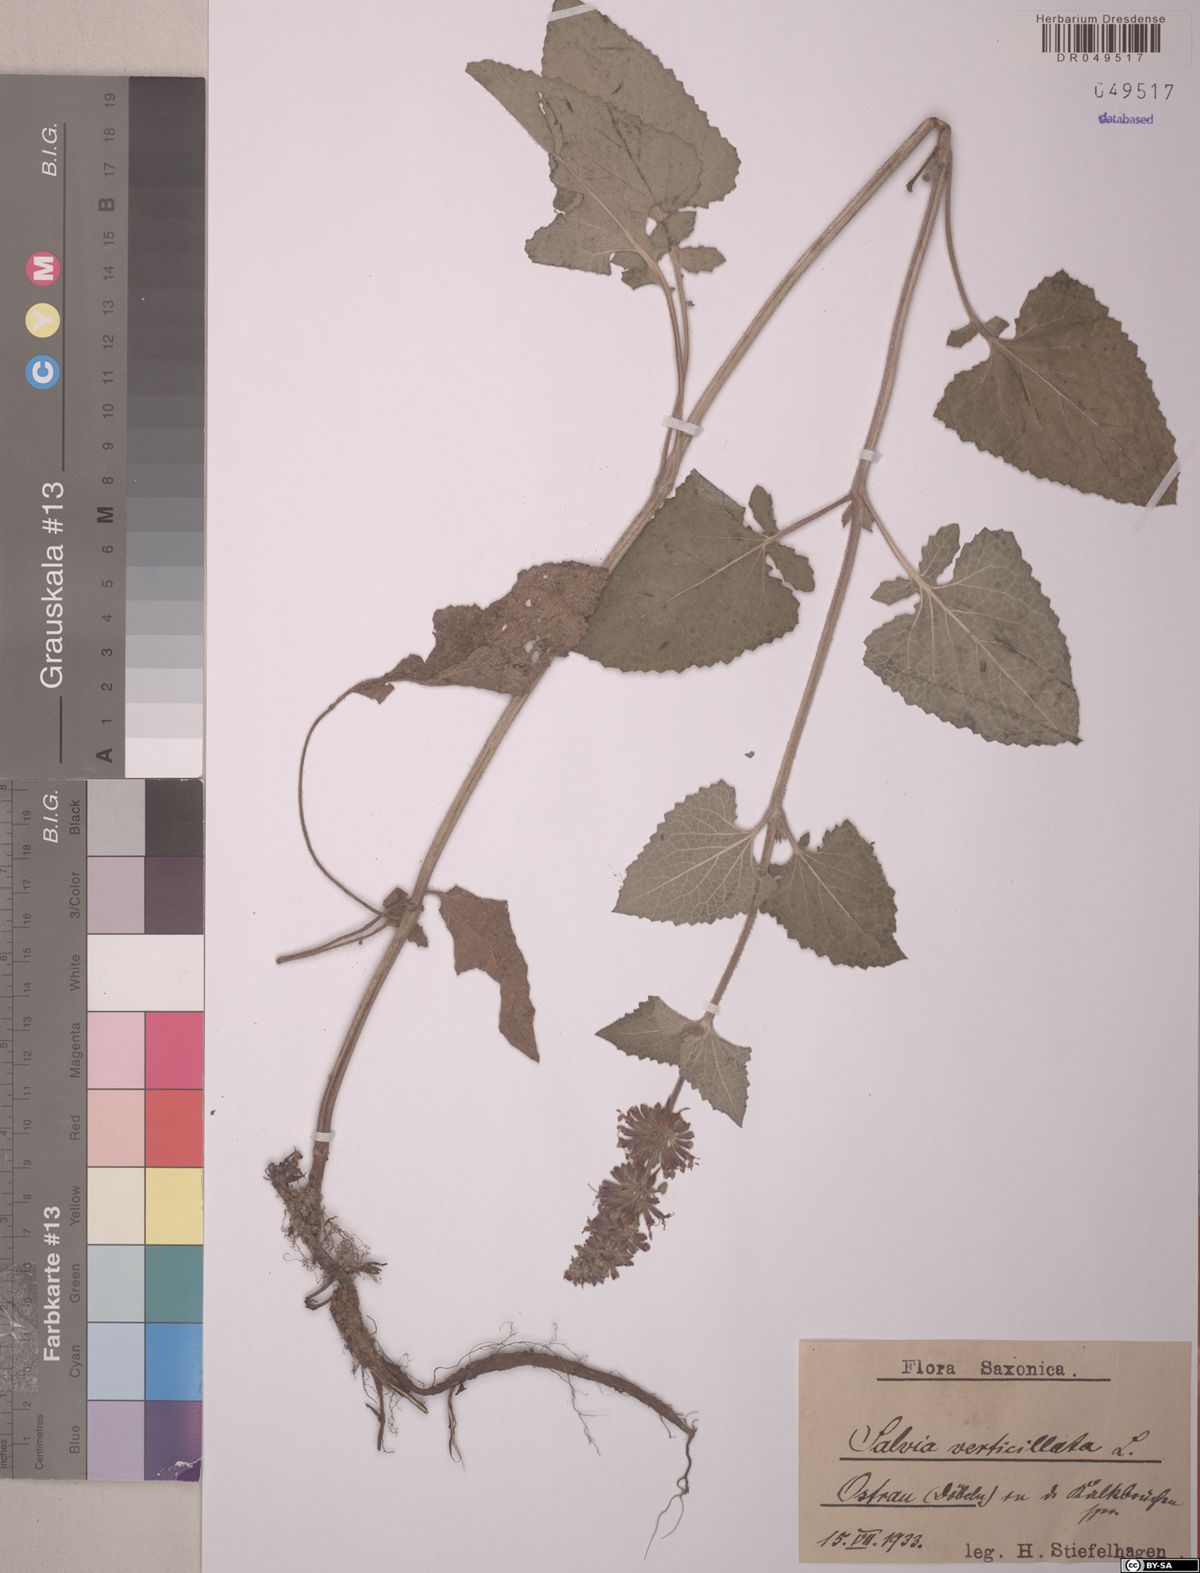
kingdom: Plantae
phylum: Tracheophyta
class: Magnoliopsida
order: Lamiales
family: Lamiaceae
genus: Salvia
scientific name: Salvia verticillata
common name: Whorled clary
